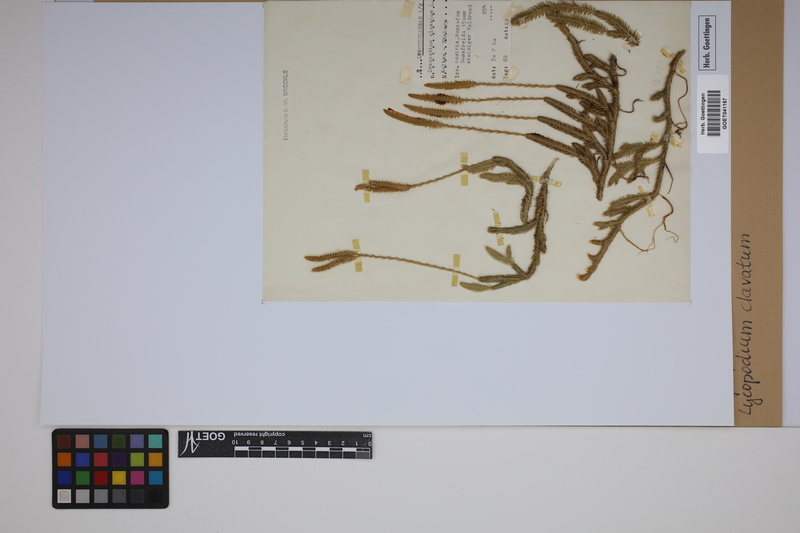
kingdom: Plantae
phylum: Tracheophyta
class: Lycopodiopsida
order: Lycopodiales
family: Lycopodiaceae
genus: Lycopodium
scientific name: Lycopodium clavatum
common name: Stag's-horn clubmoss
